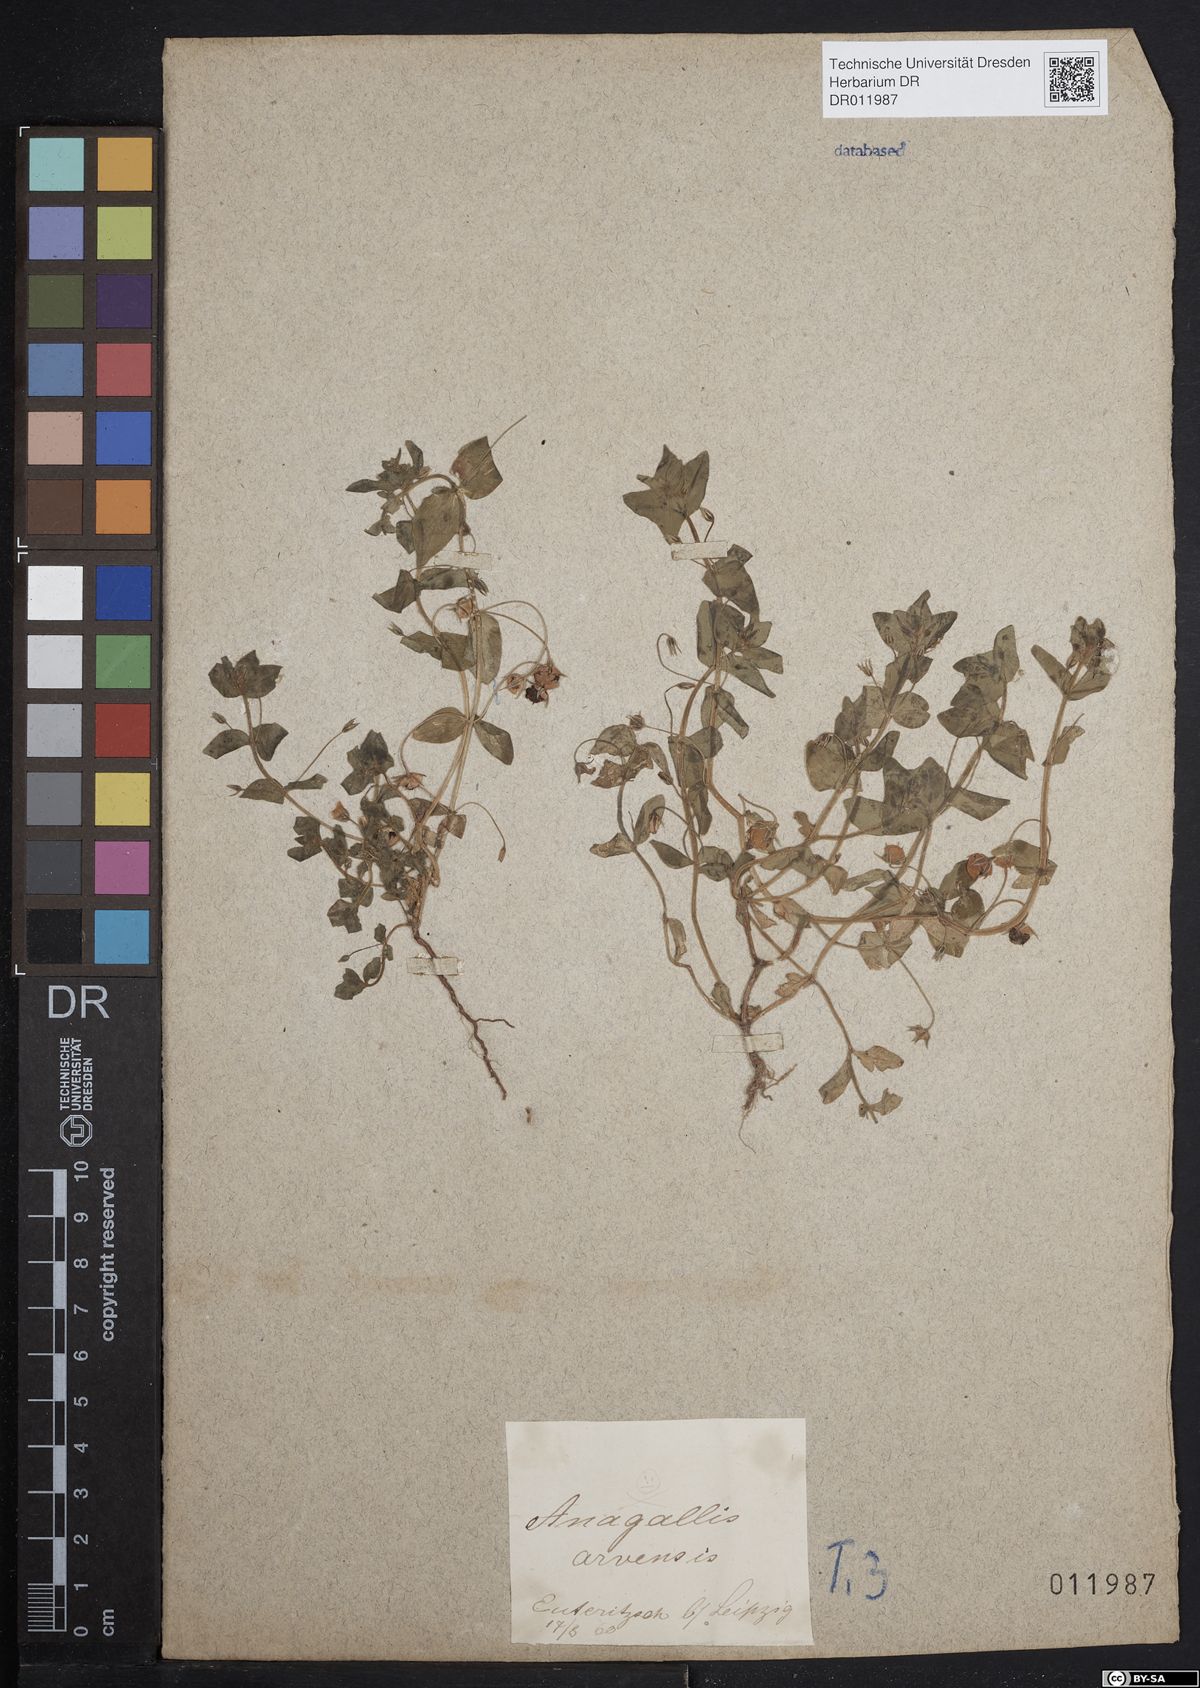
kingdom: Plantae
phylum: Tracheophyta
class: Magnoliopsida
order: Ericales
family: Primulaceae
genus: Lysimachia
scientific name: Lysimachia arvensis
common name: Scarlet pimpernel
